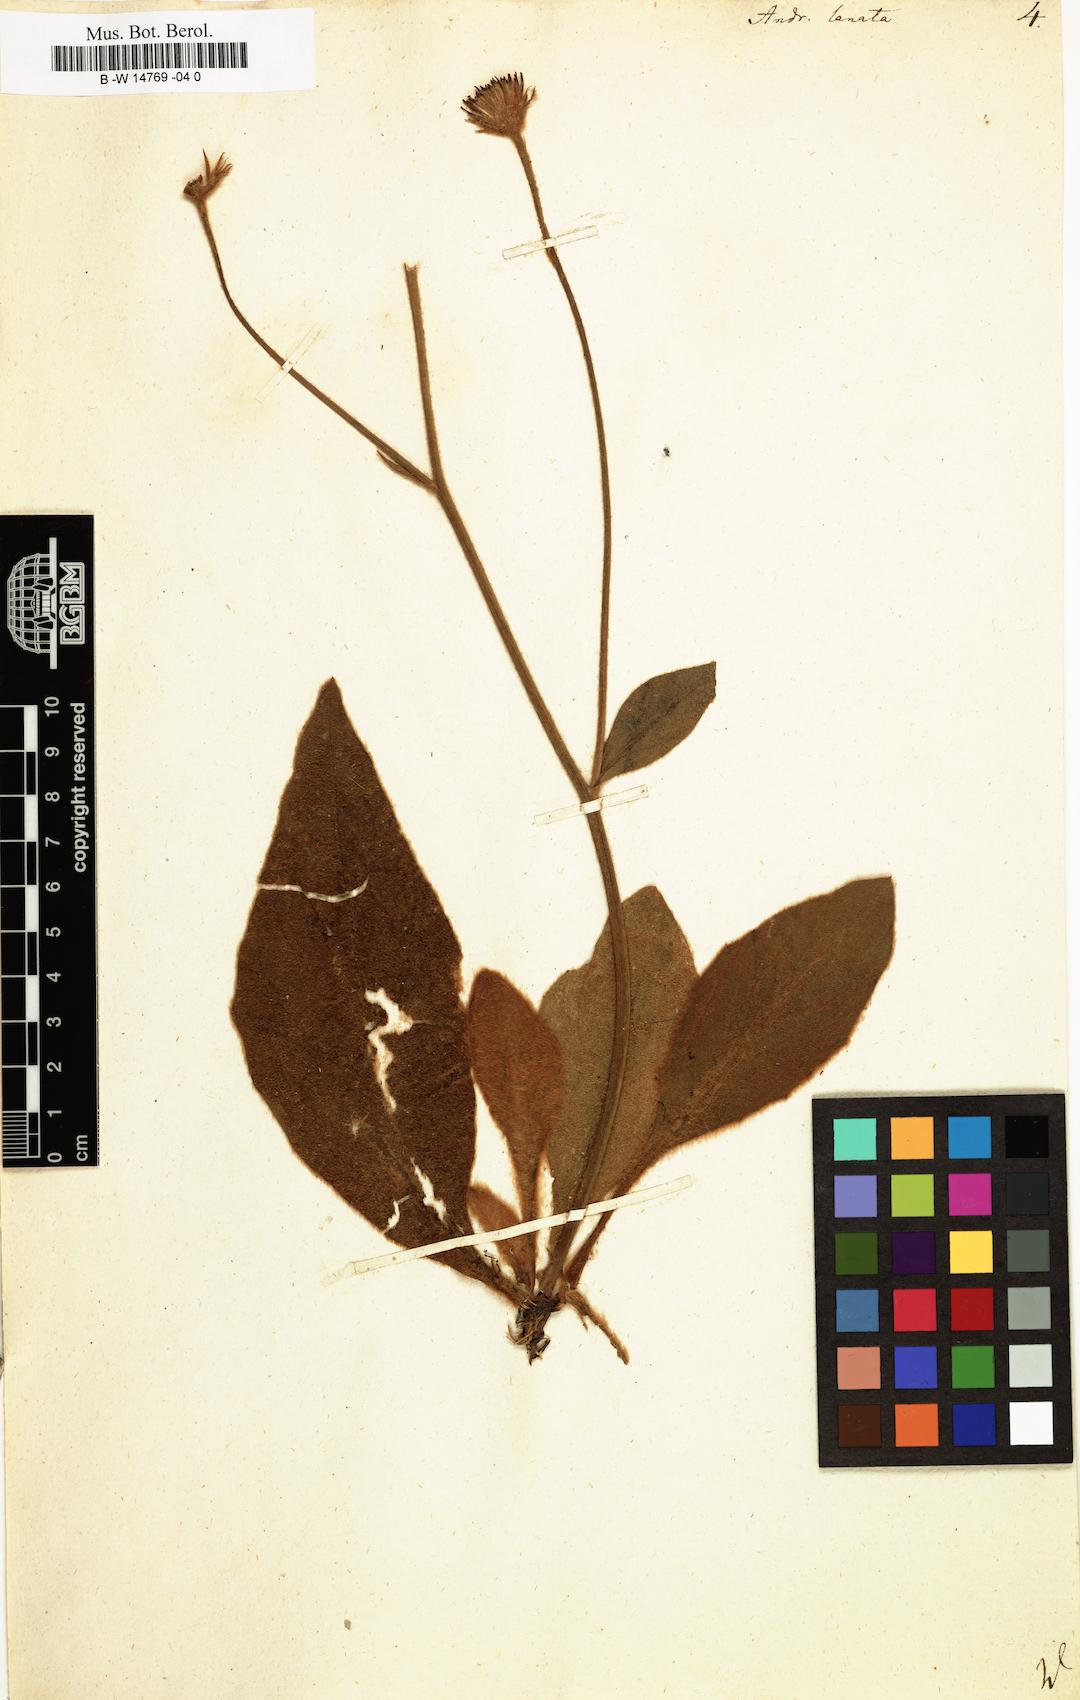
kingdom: Plantae
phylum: Tracheophyta
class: Magnoliopsida
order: Asterales
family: Asteraceae
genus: Andryala
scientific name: Andryala lanata
